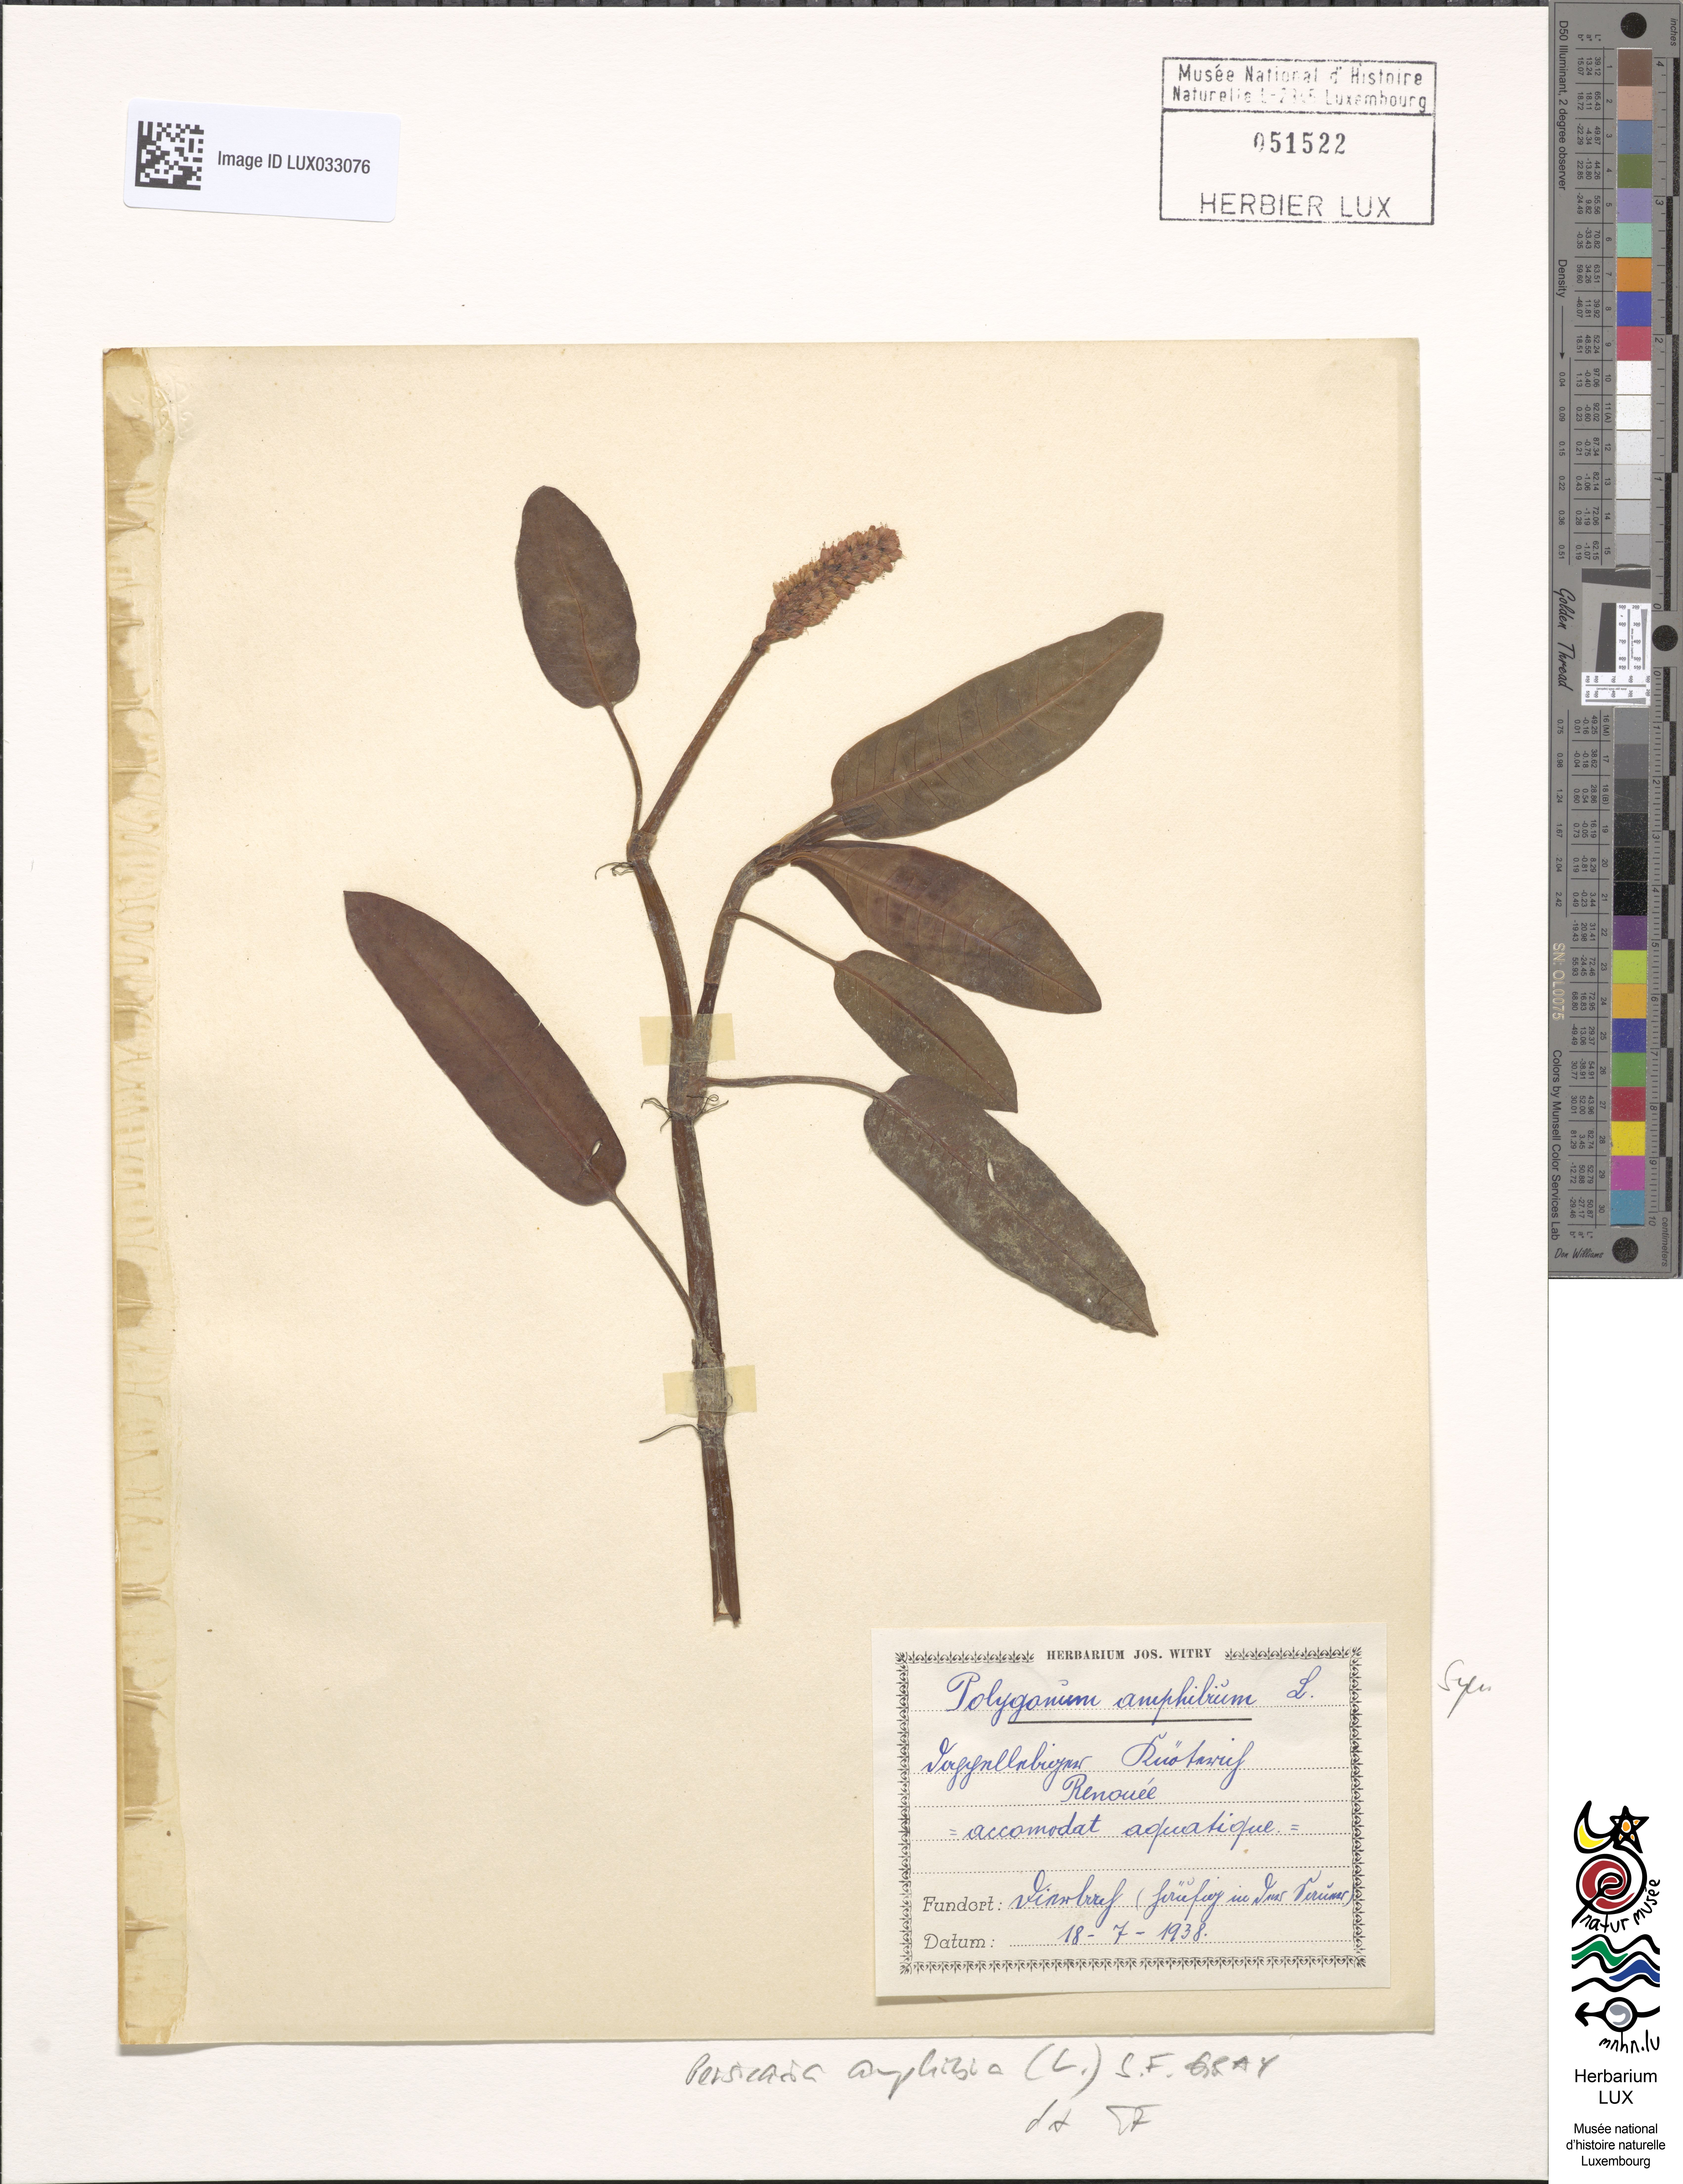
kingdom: Plantae
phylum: Tracheophyta
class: Magnoliopsida
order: Caryophyllales
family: Polygonaceae
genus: Persicaria
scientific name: Persicaria amphibia
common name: Amphibious bistort
